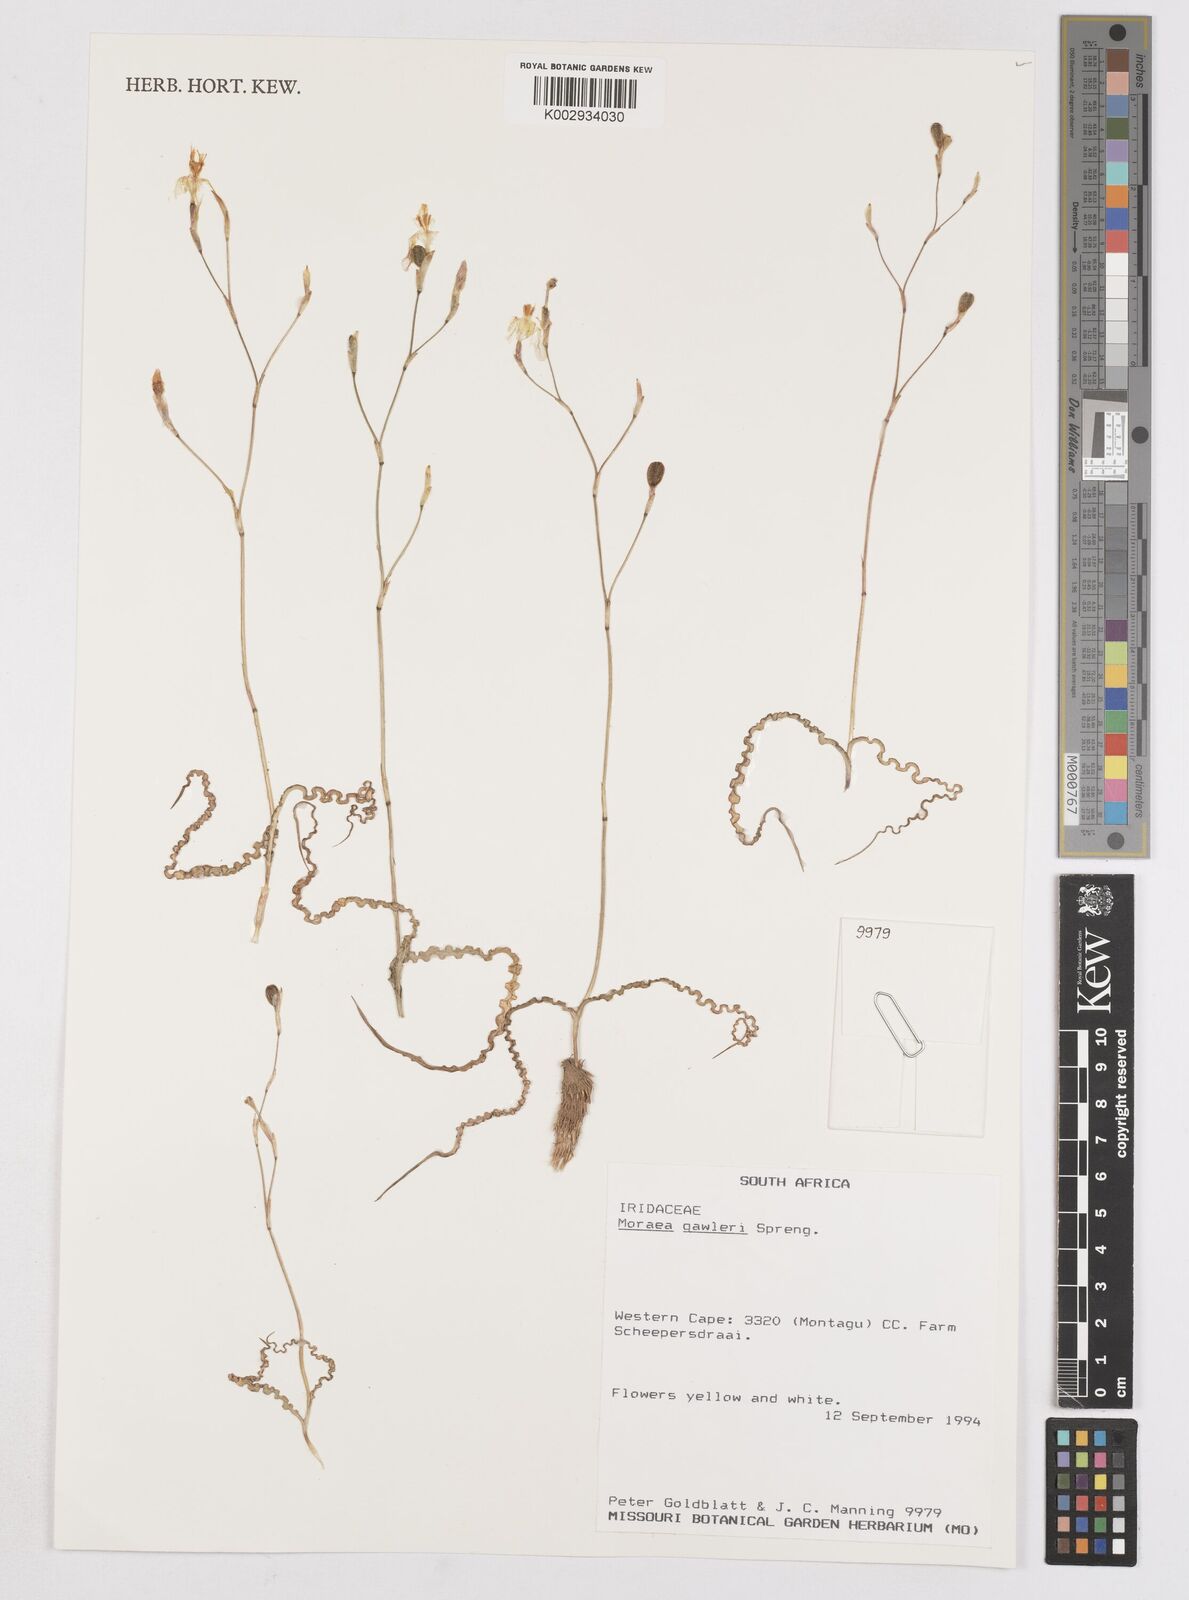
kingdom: Plantae
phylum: Tracheophyta
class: Liliopsida
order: Asparagales
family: Iridaceae
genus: Moraea
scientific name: Moraea gawleri
